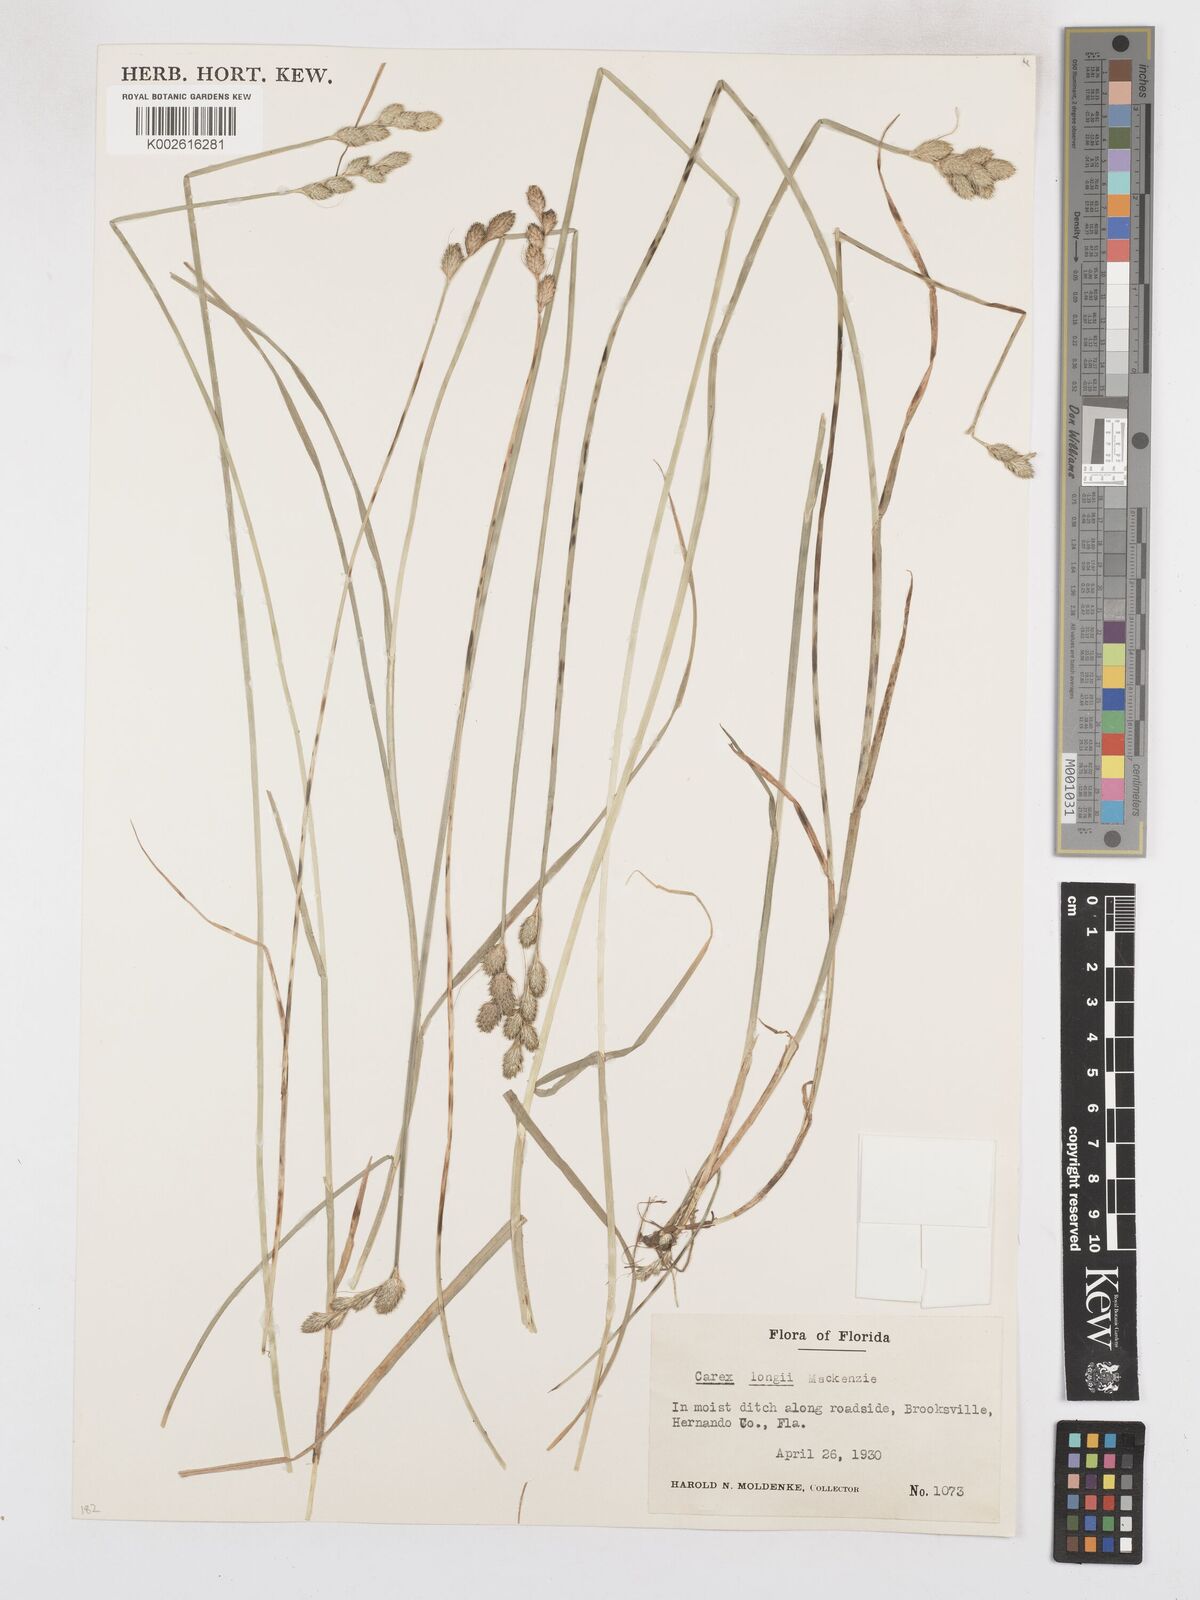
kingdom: Plantae
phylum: Tracheophyta
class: Liliopsida
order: Poales
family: Cyperaceae
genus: Carex
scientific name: Carex longii
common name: Long's sedge
